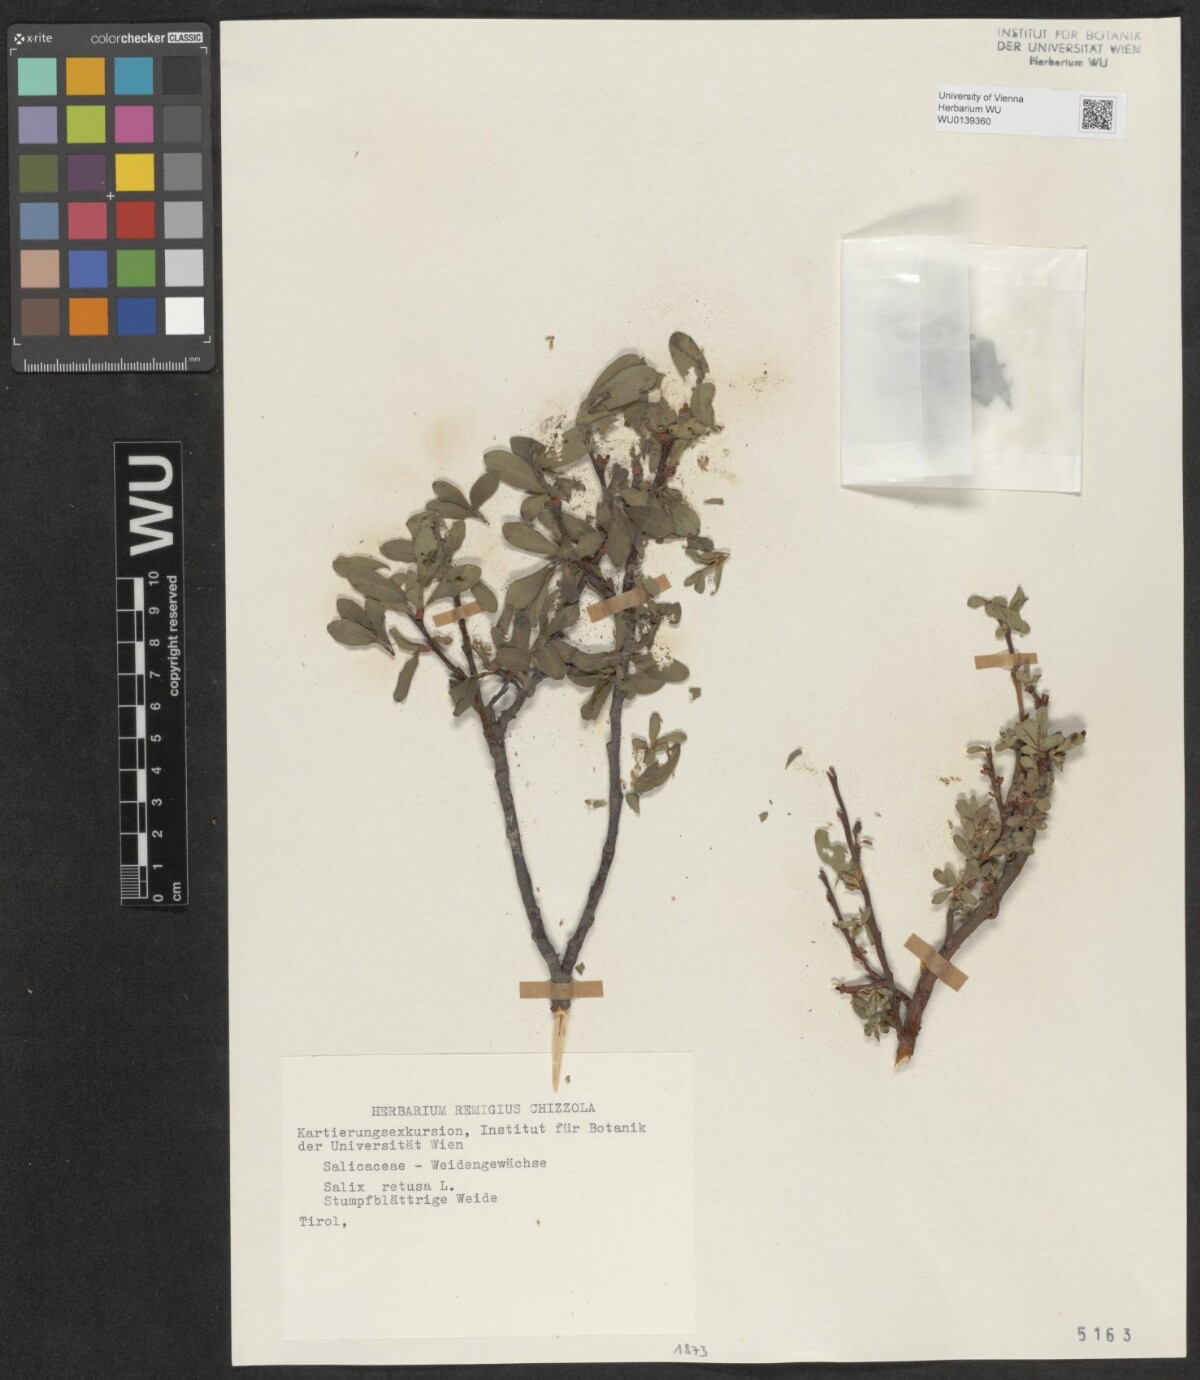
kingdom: Plantae
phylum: Tracheophyta
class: Magnoliopsida
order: Malpighiales
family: Salicaceae
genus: Salix
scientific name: Salix retusa
